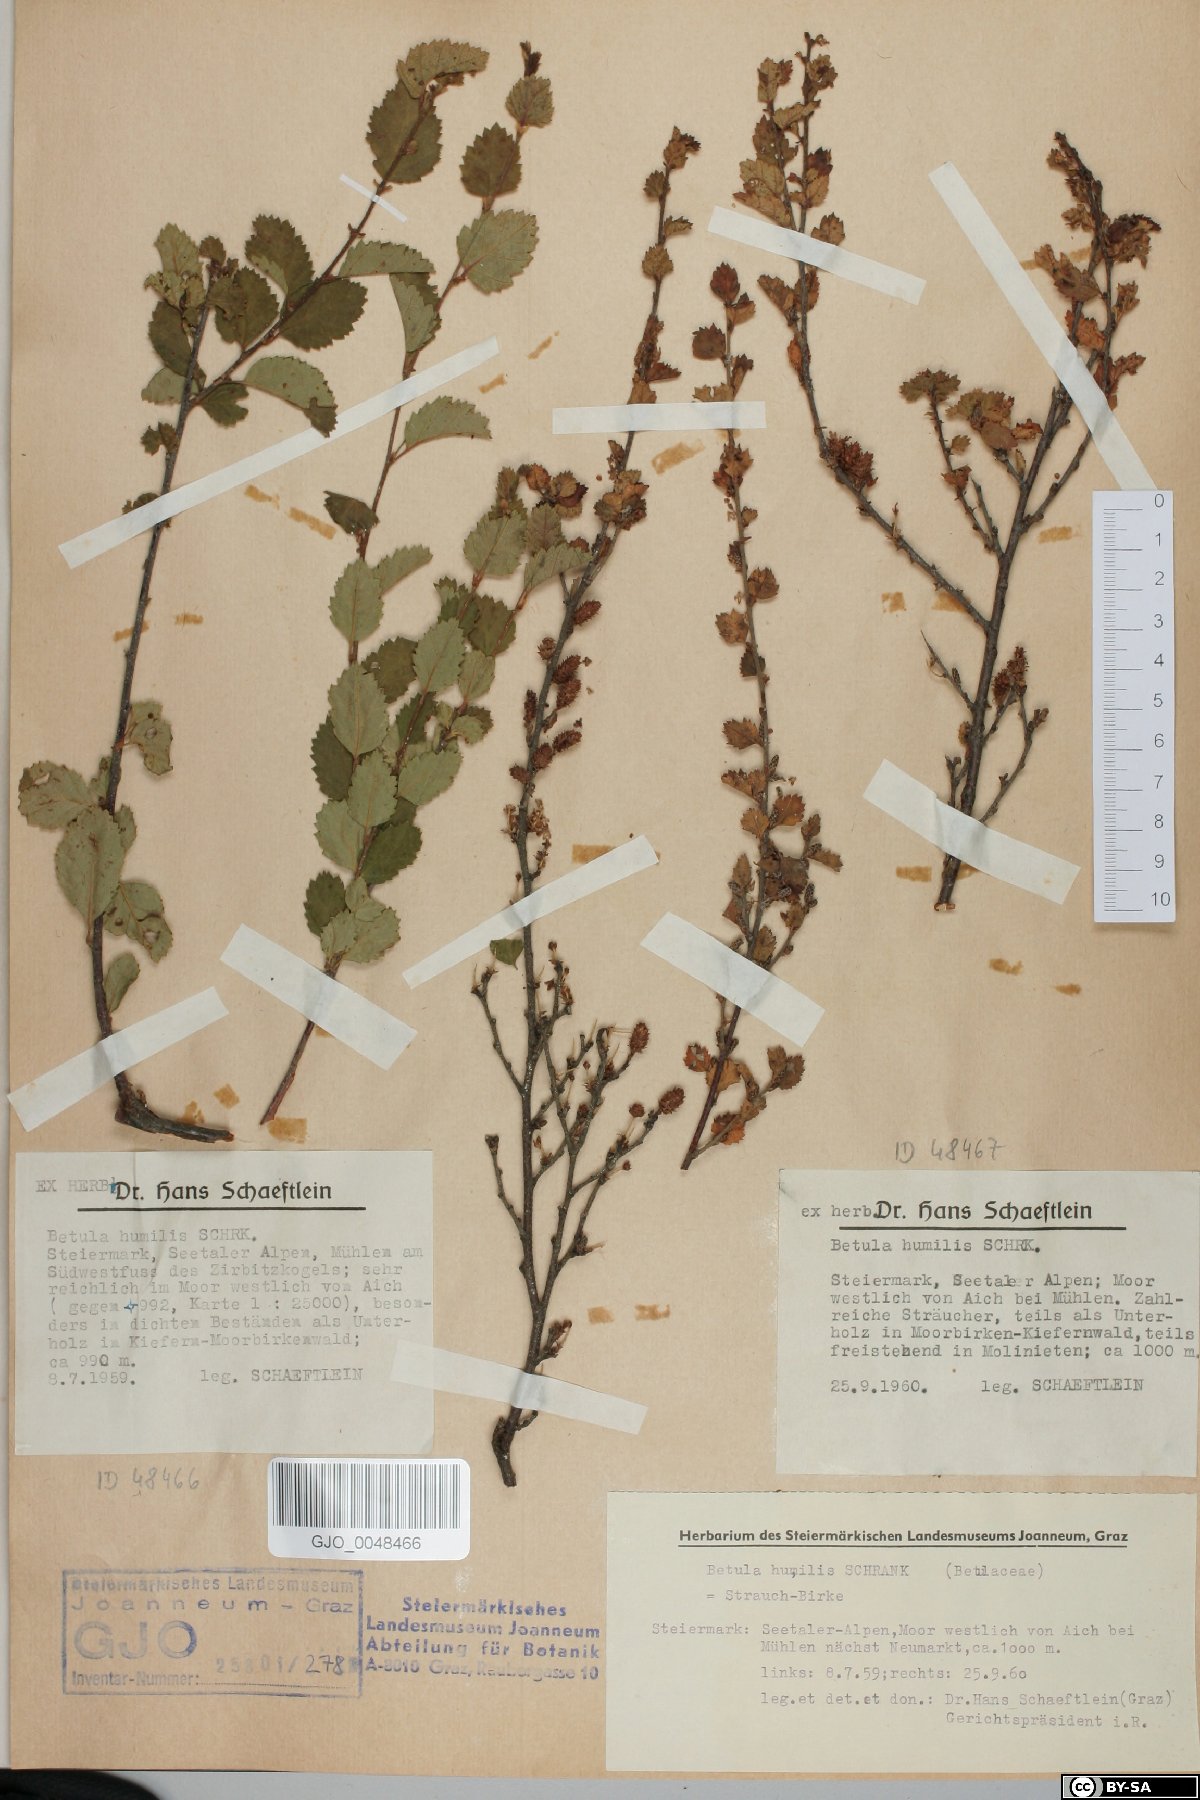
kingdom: Plantae
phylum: Tracheophyta
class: Magnoliopsida
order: Fagales
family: Betulaceae
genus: Betula
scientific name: Betula humilis
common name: Shrubby birch
